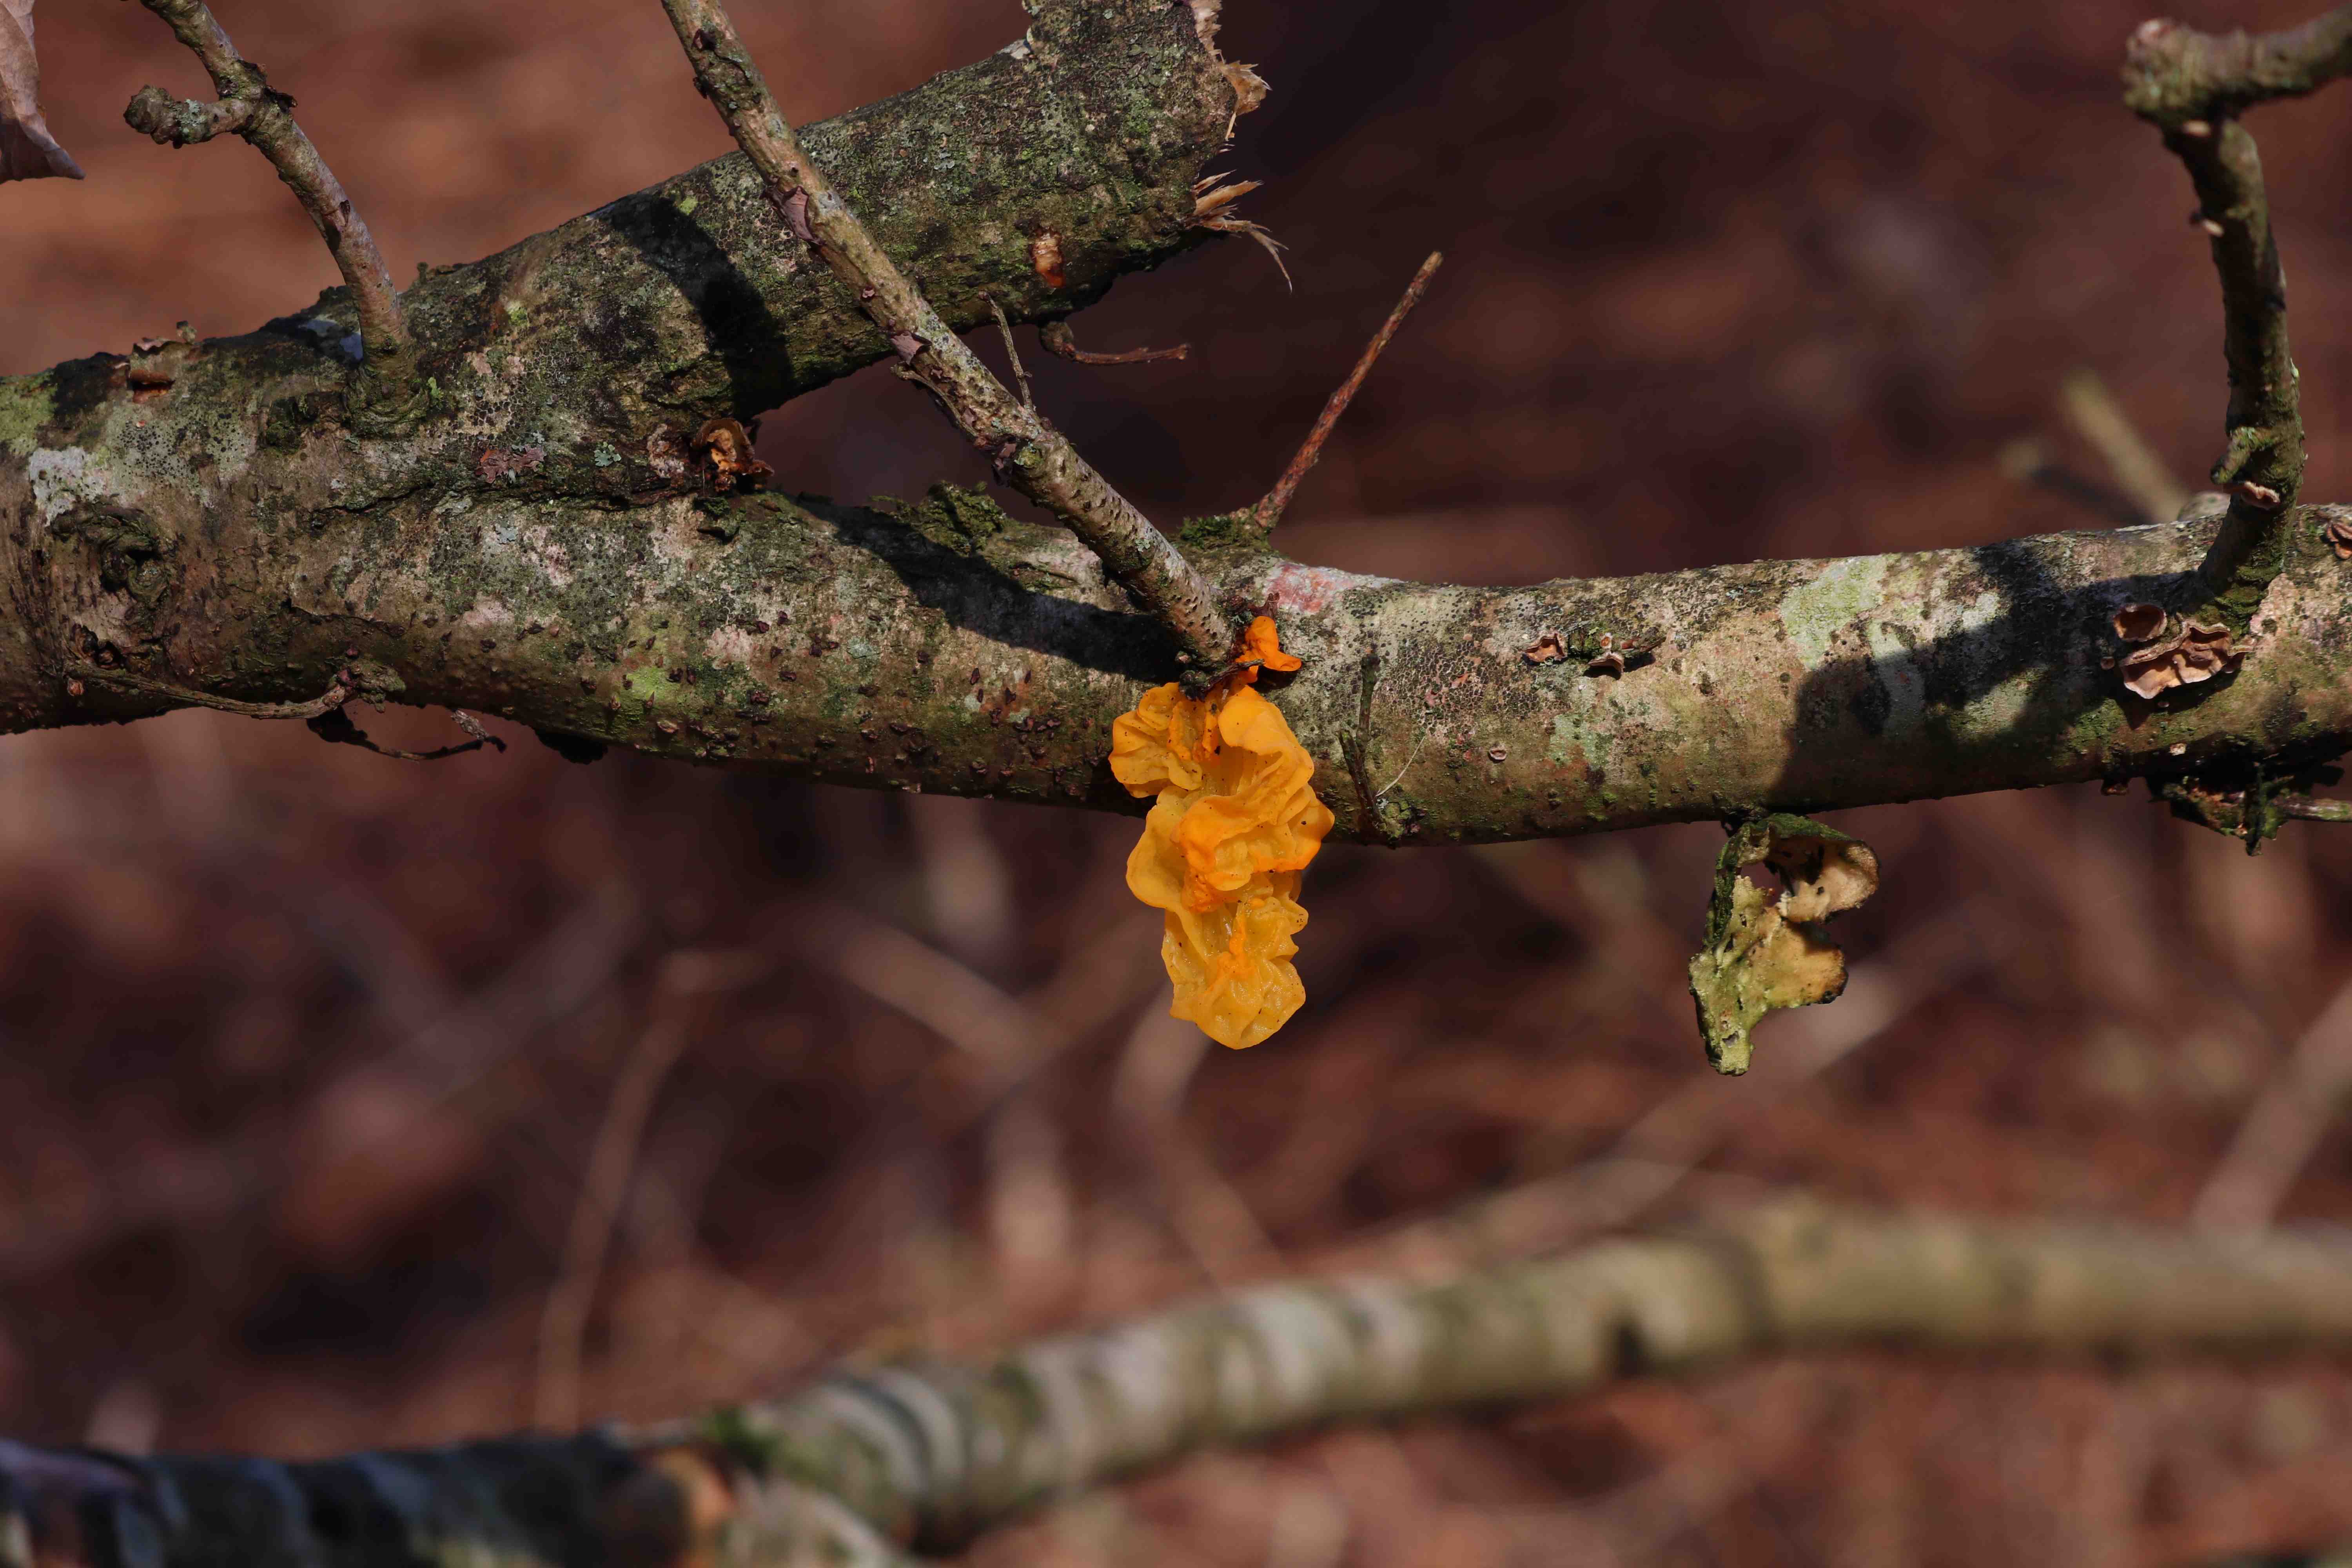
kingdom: Fungi
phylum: Basidiomycota
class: Tremellomycetes
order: Tremellales
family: Tremellaceae
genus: Tremella
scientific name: Tremella mesenterica
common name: gul bævresvamp
